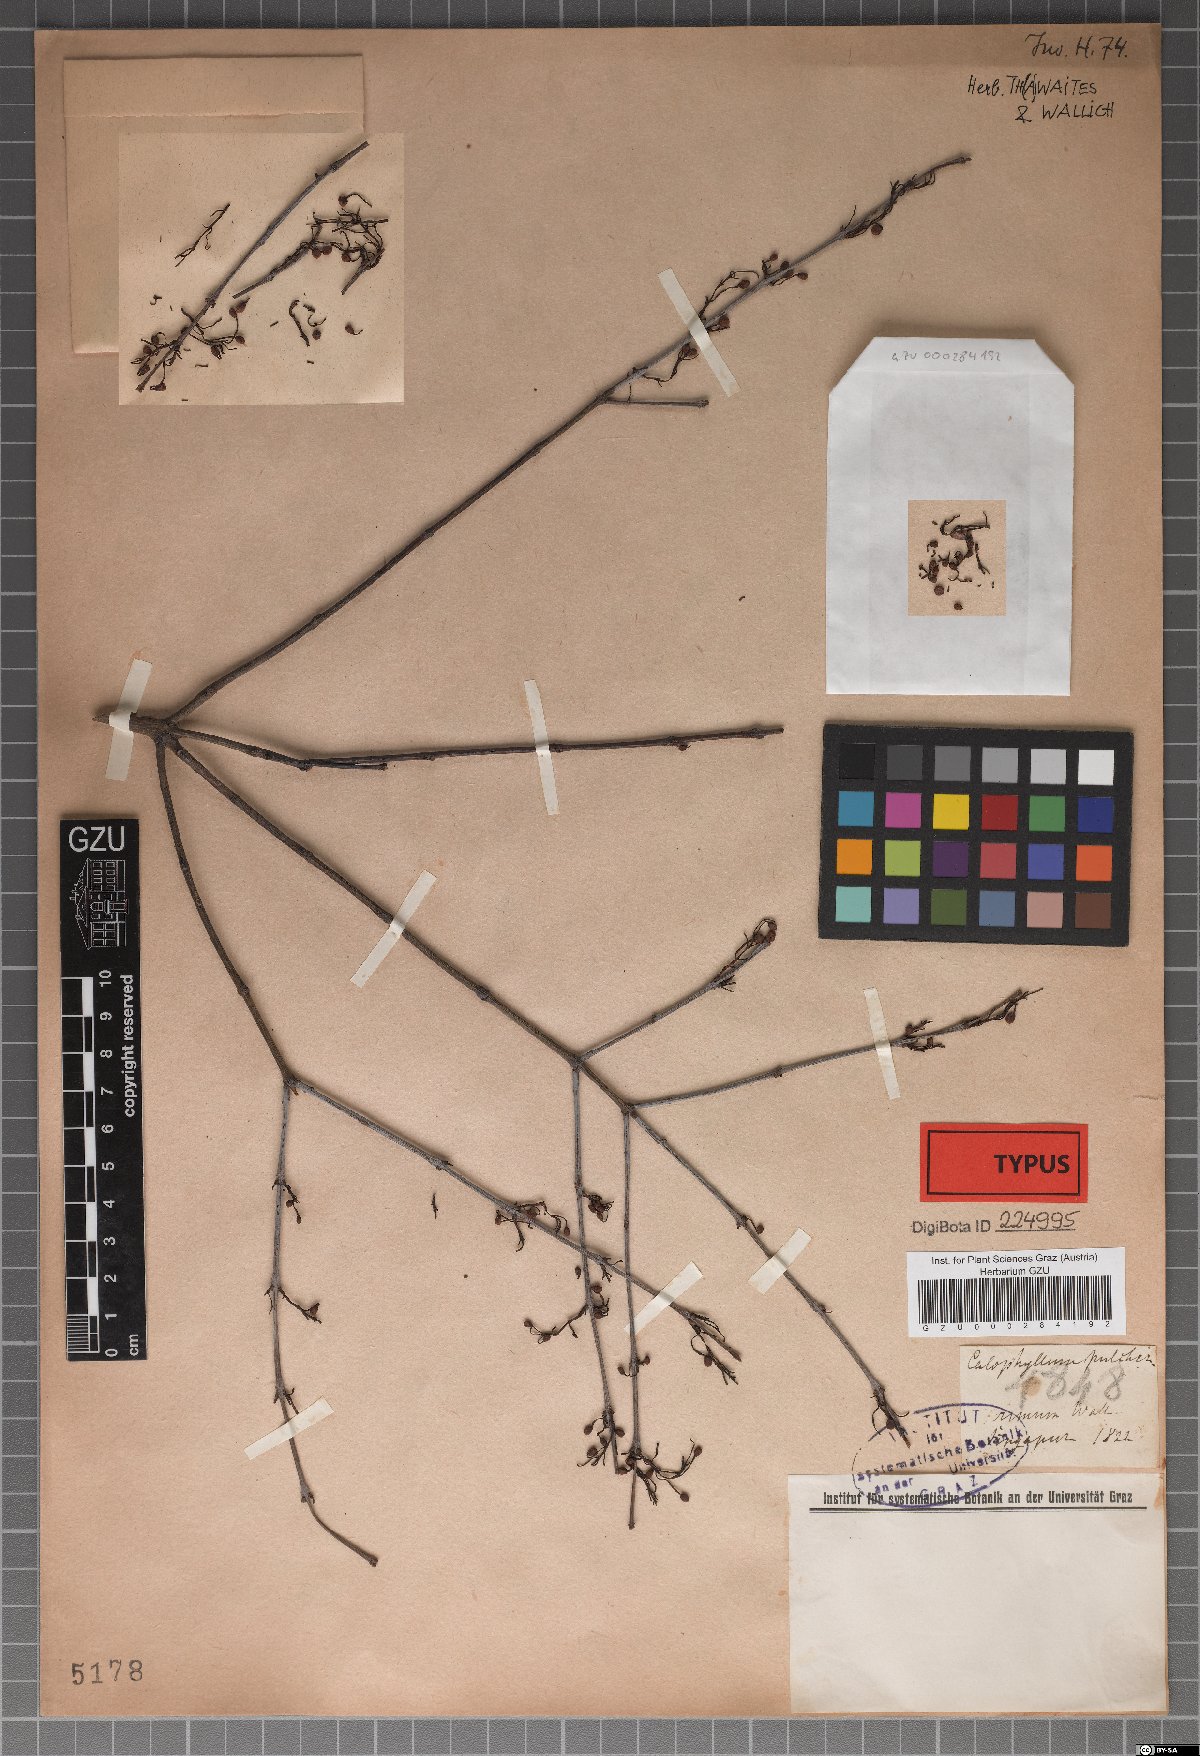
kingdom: Plantae
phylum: Tracheophyta
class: Magnoliopsida
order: Malpighiales
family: Calophyllaceae
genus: Calophyllum
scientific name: Calophyllum pulcherrimum
